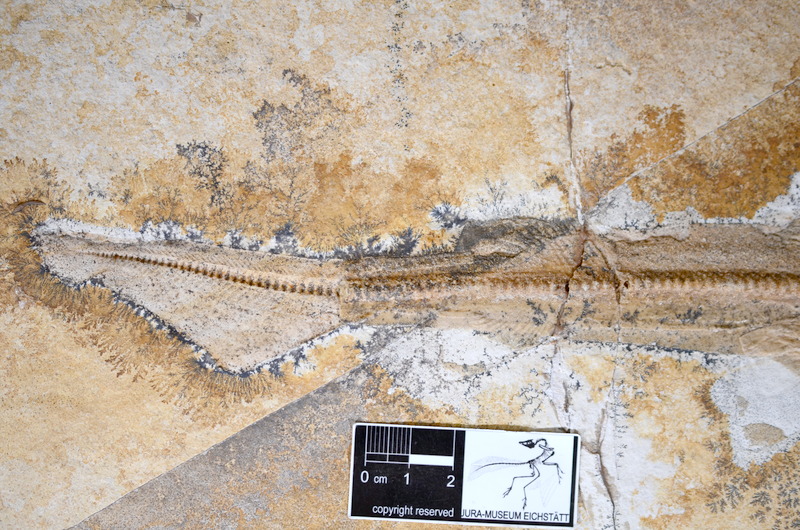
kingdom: Animalia
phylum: Chordata
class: Elasmobranchii
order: Carcharhiniformes
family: Scyliorhinidae
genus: Palaeoscyllium
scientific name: Palaeoscyllium formosum
